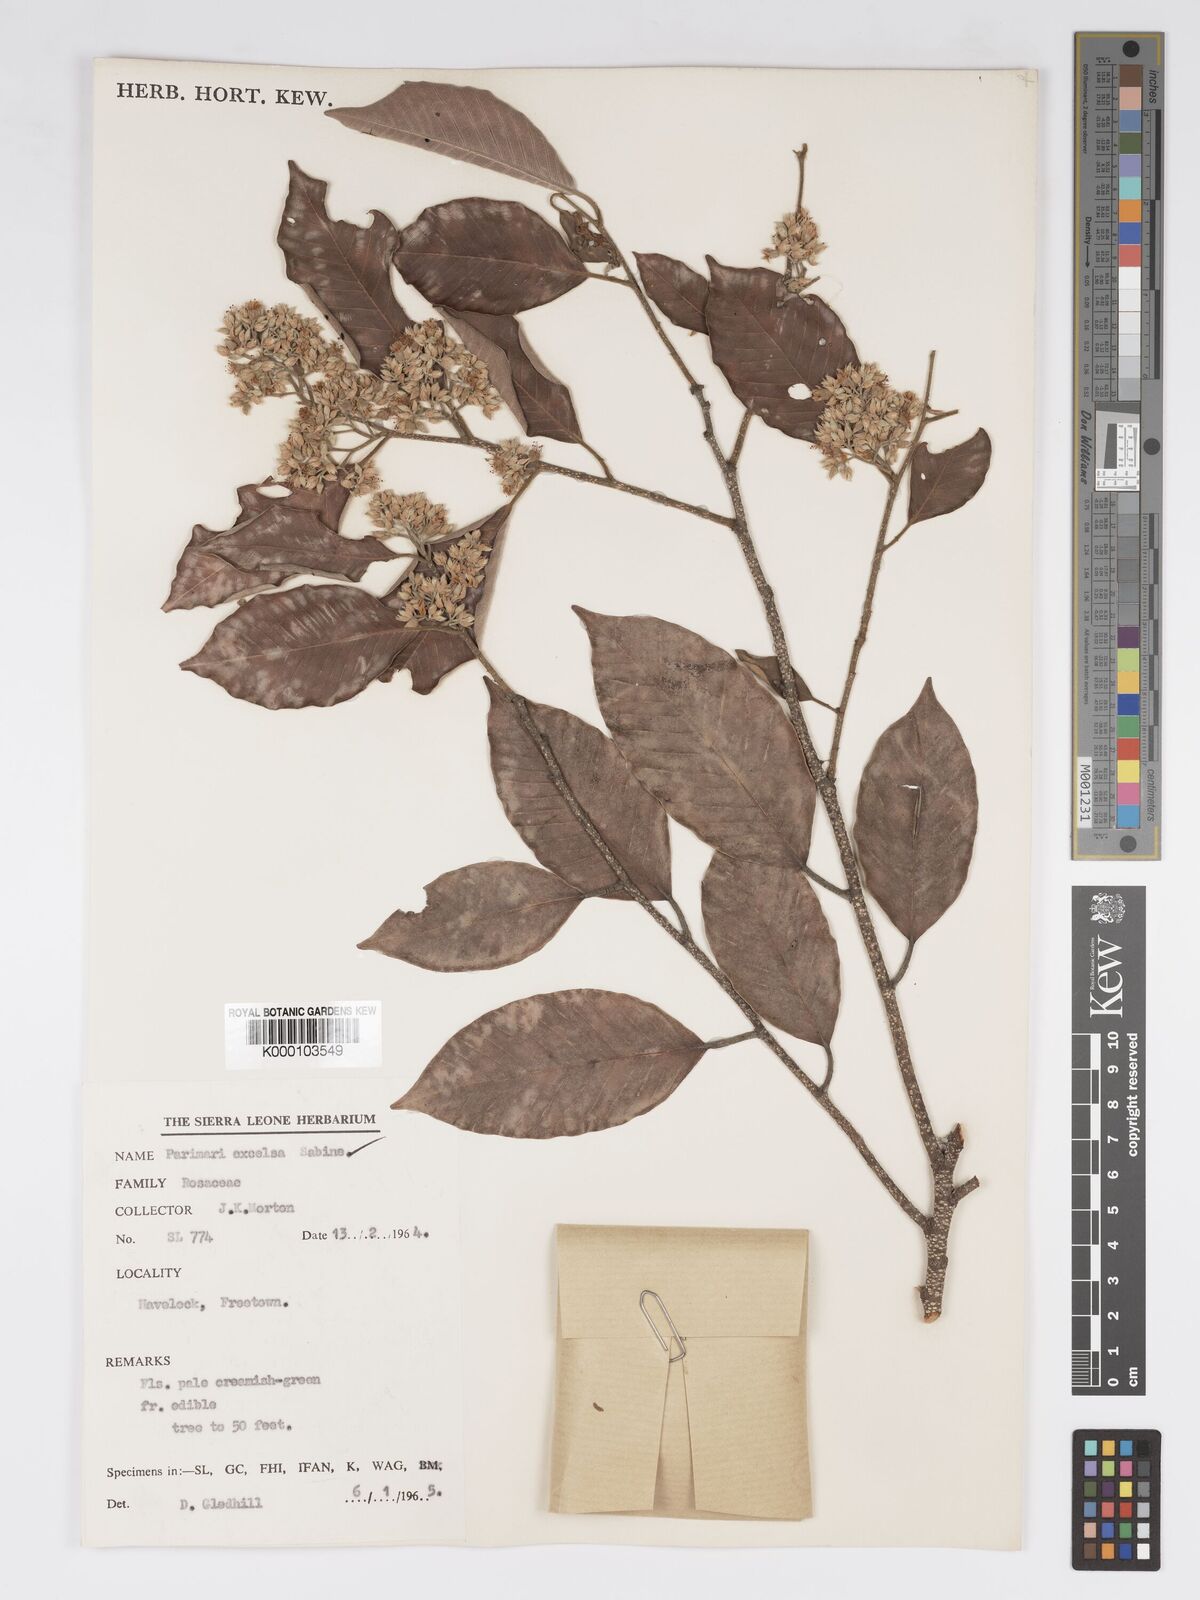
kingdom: Plantae
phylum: Tracheophyta
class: Magnoliopsida
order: Malpighiales
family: Chrysobalanaceae
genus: Parinari
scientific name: Parinari excelsa
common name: Guinea-plum
